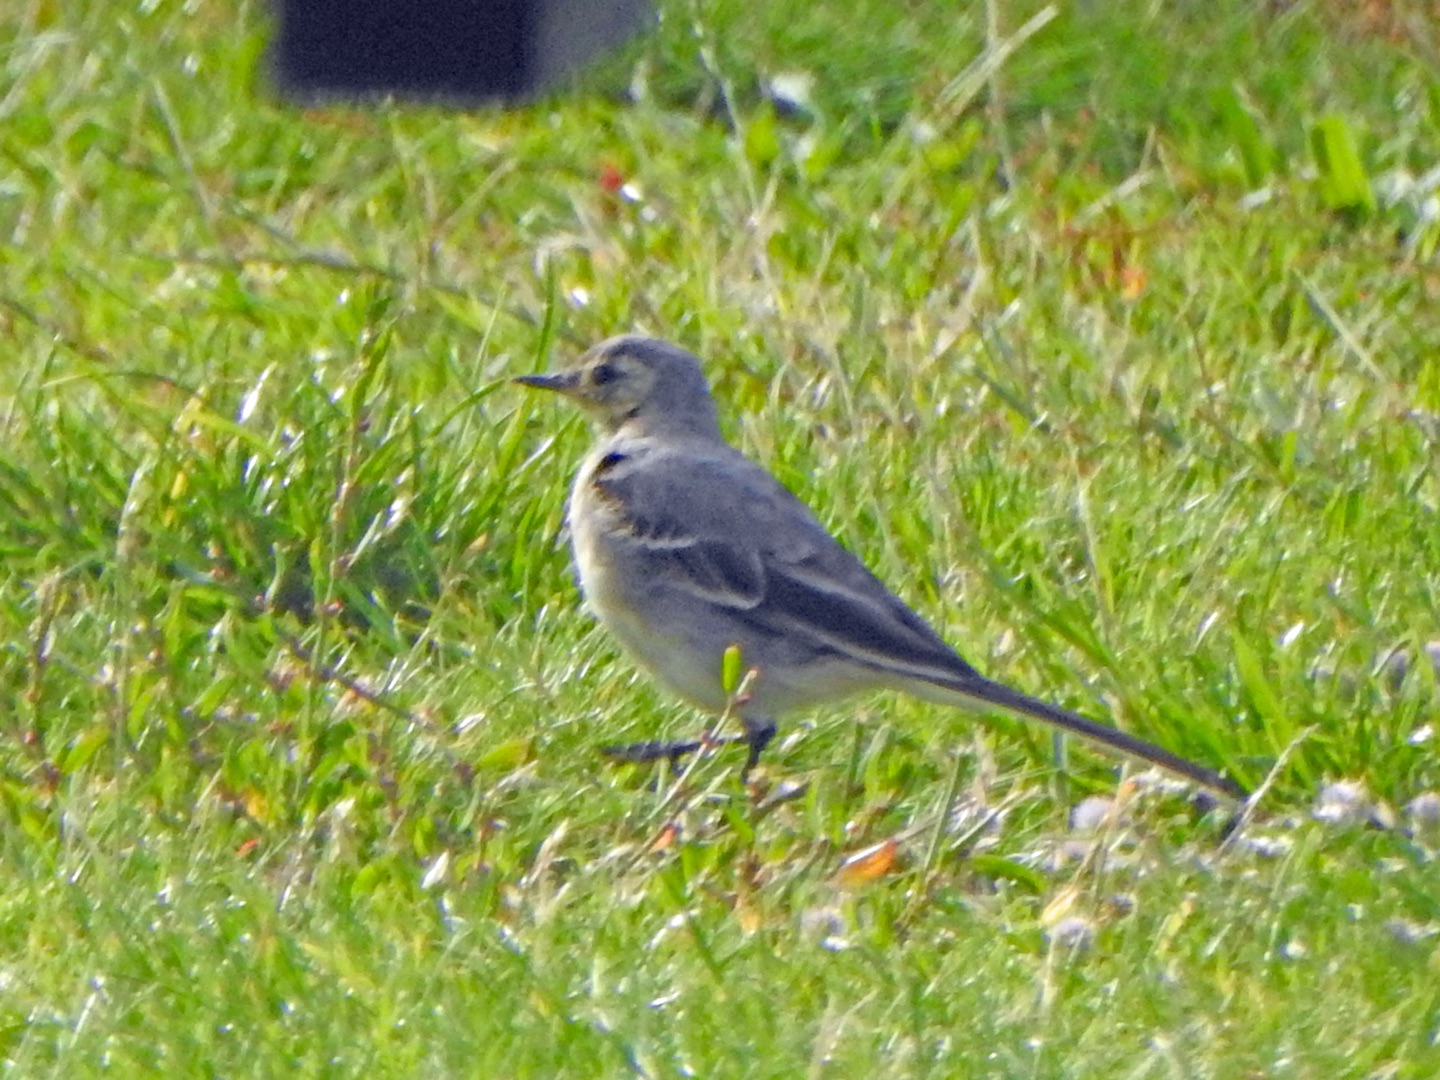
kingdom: Animalia
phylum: Chordata
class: Aves
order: Passeriformes
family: Motacillidae
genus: Motacilla
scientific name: Motacilla alba
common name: Hvid vipstjert
